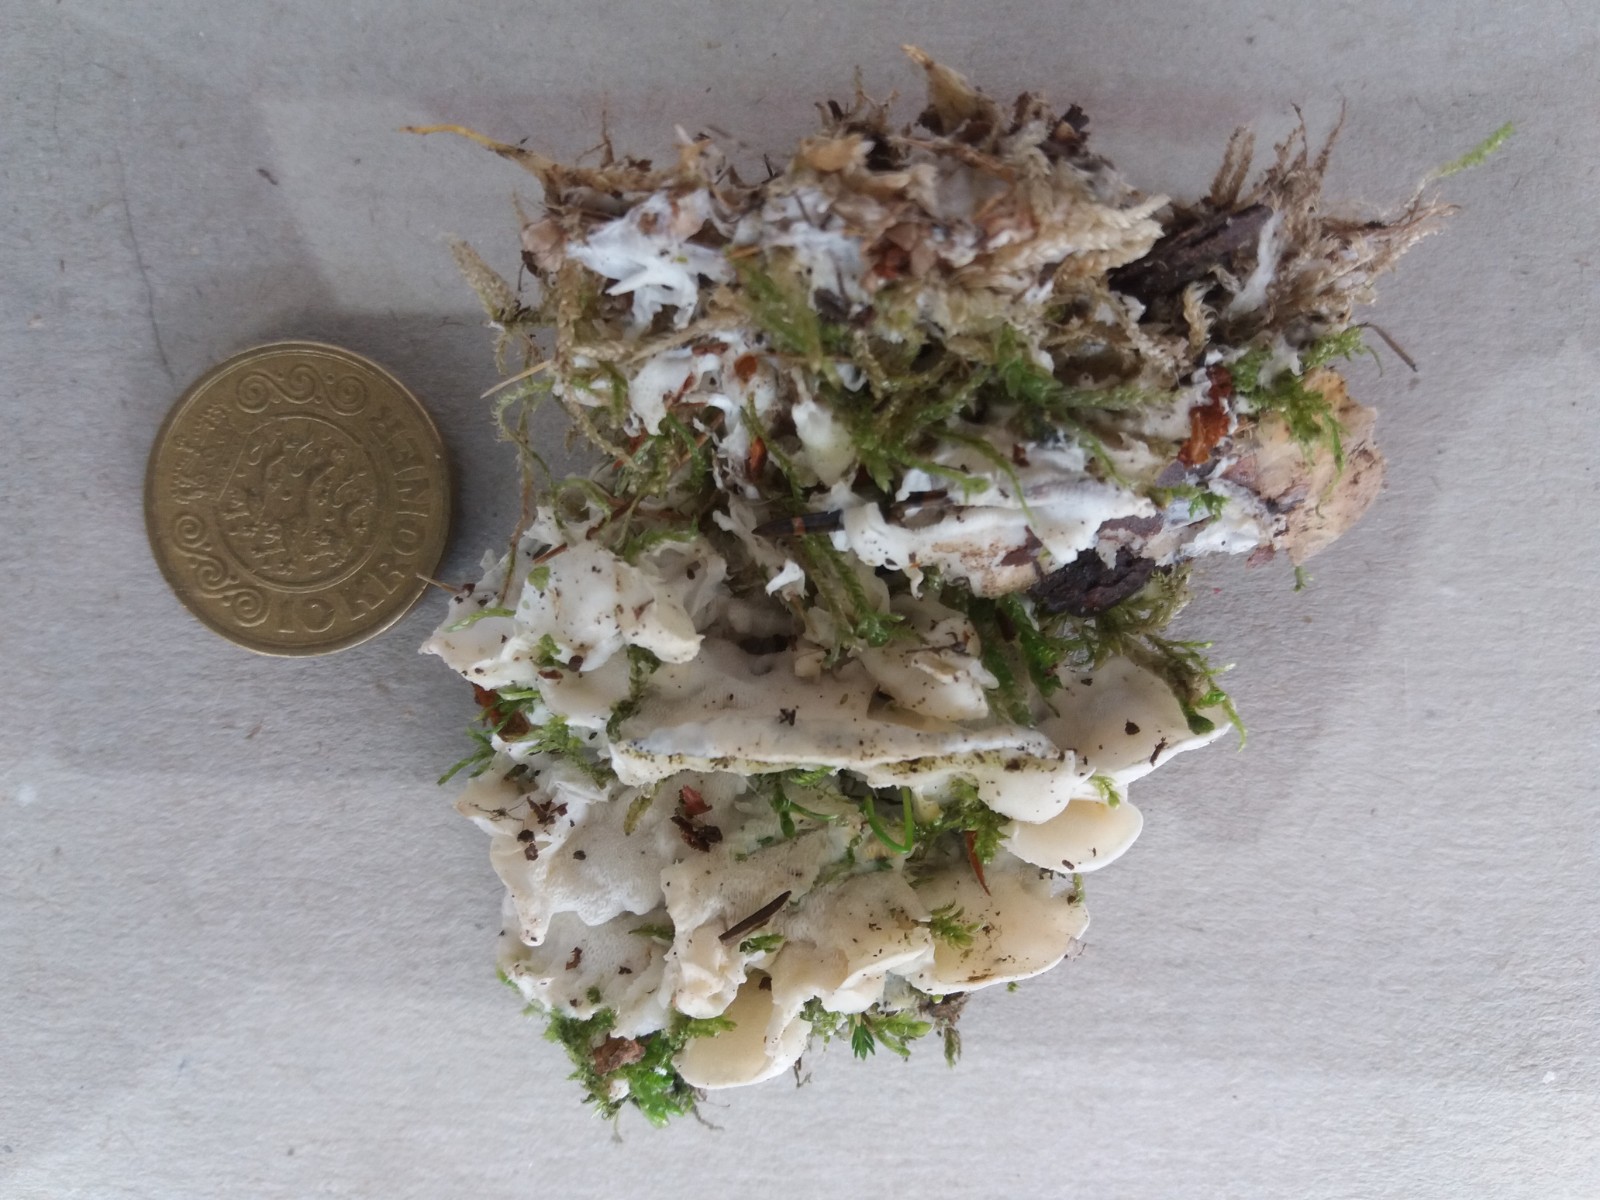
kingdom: Fungi
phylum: Basidiomycota
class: Agaricomycetes
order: Polyporales
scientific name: Polyporales
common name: poresvampordenen
